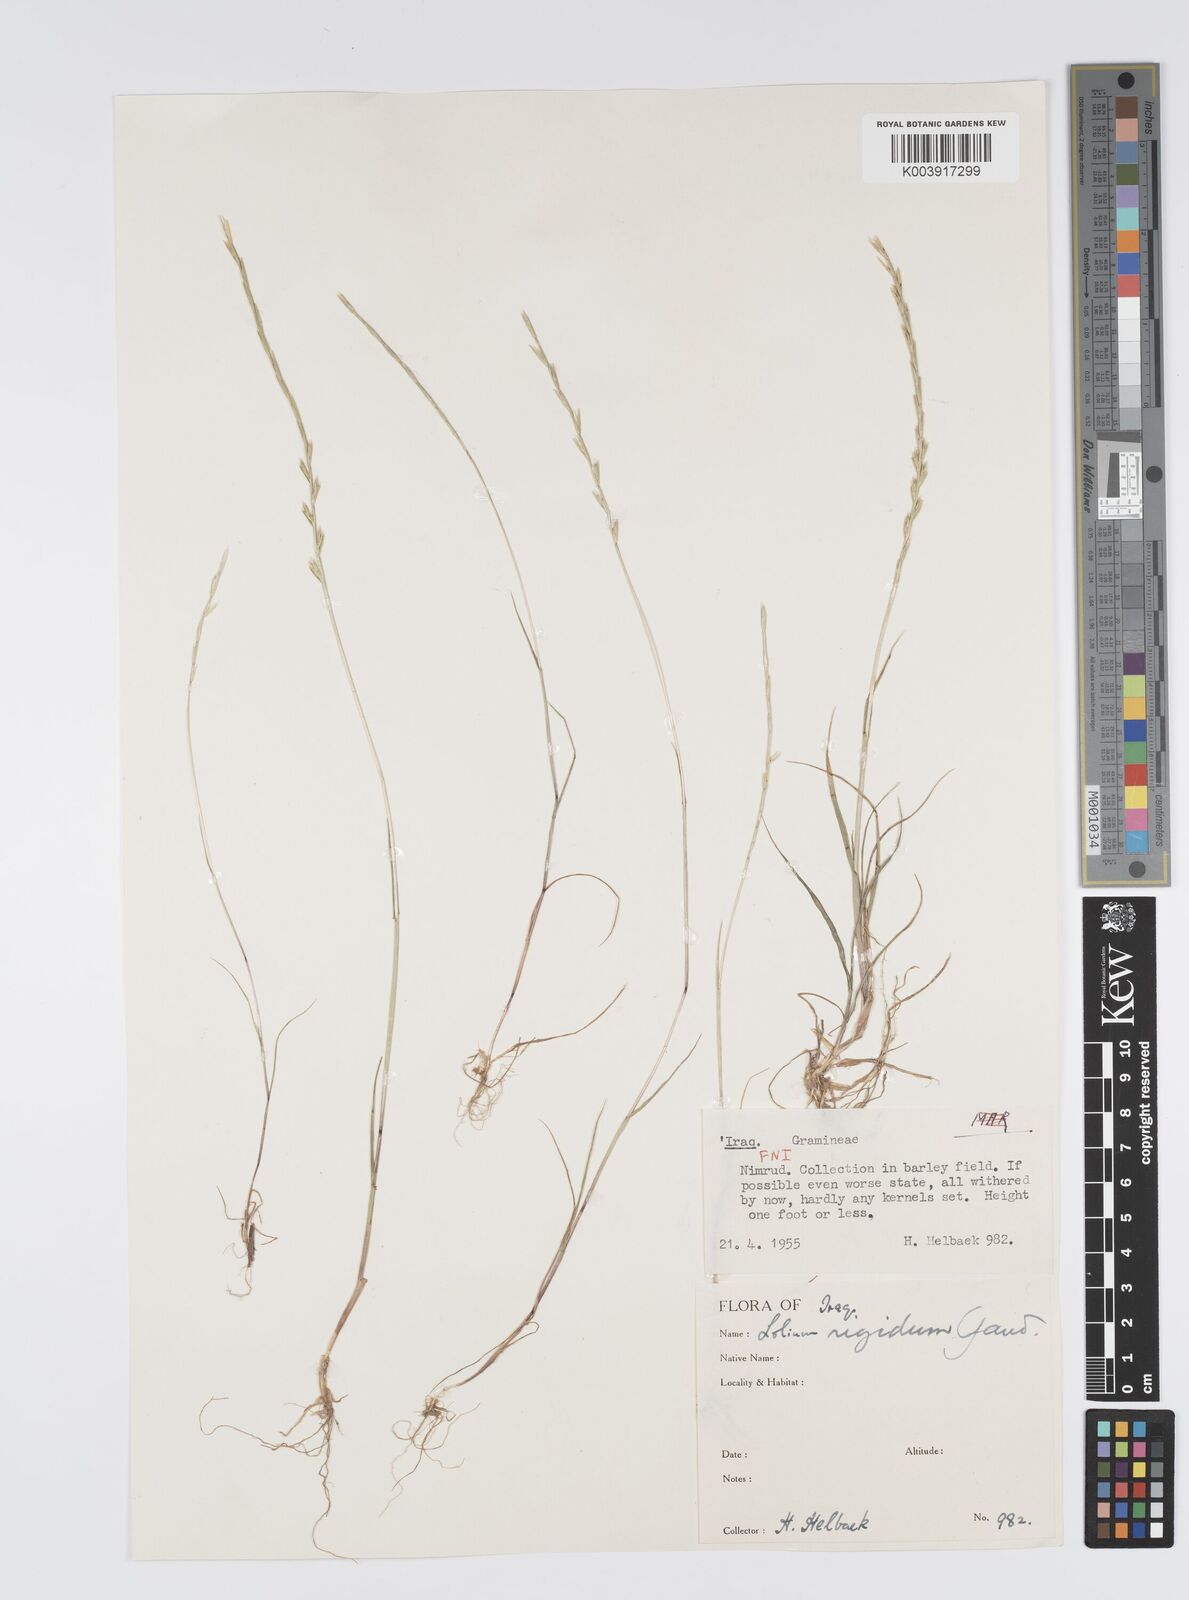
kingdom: Plantae
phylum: Tracheophyta
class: Liliopsida
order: Poales
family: Poaceae
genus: Lolium
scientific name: Lolium rigidum
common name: Wimmera ryegrass
